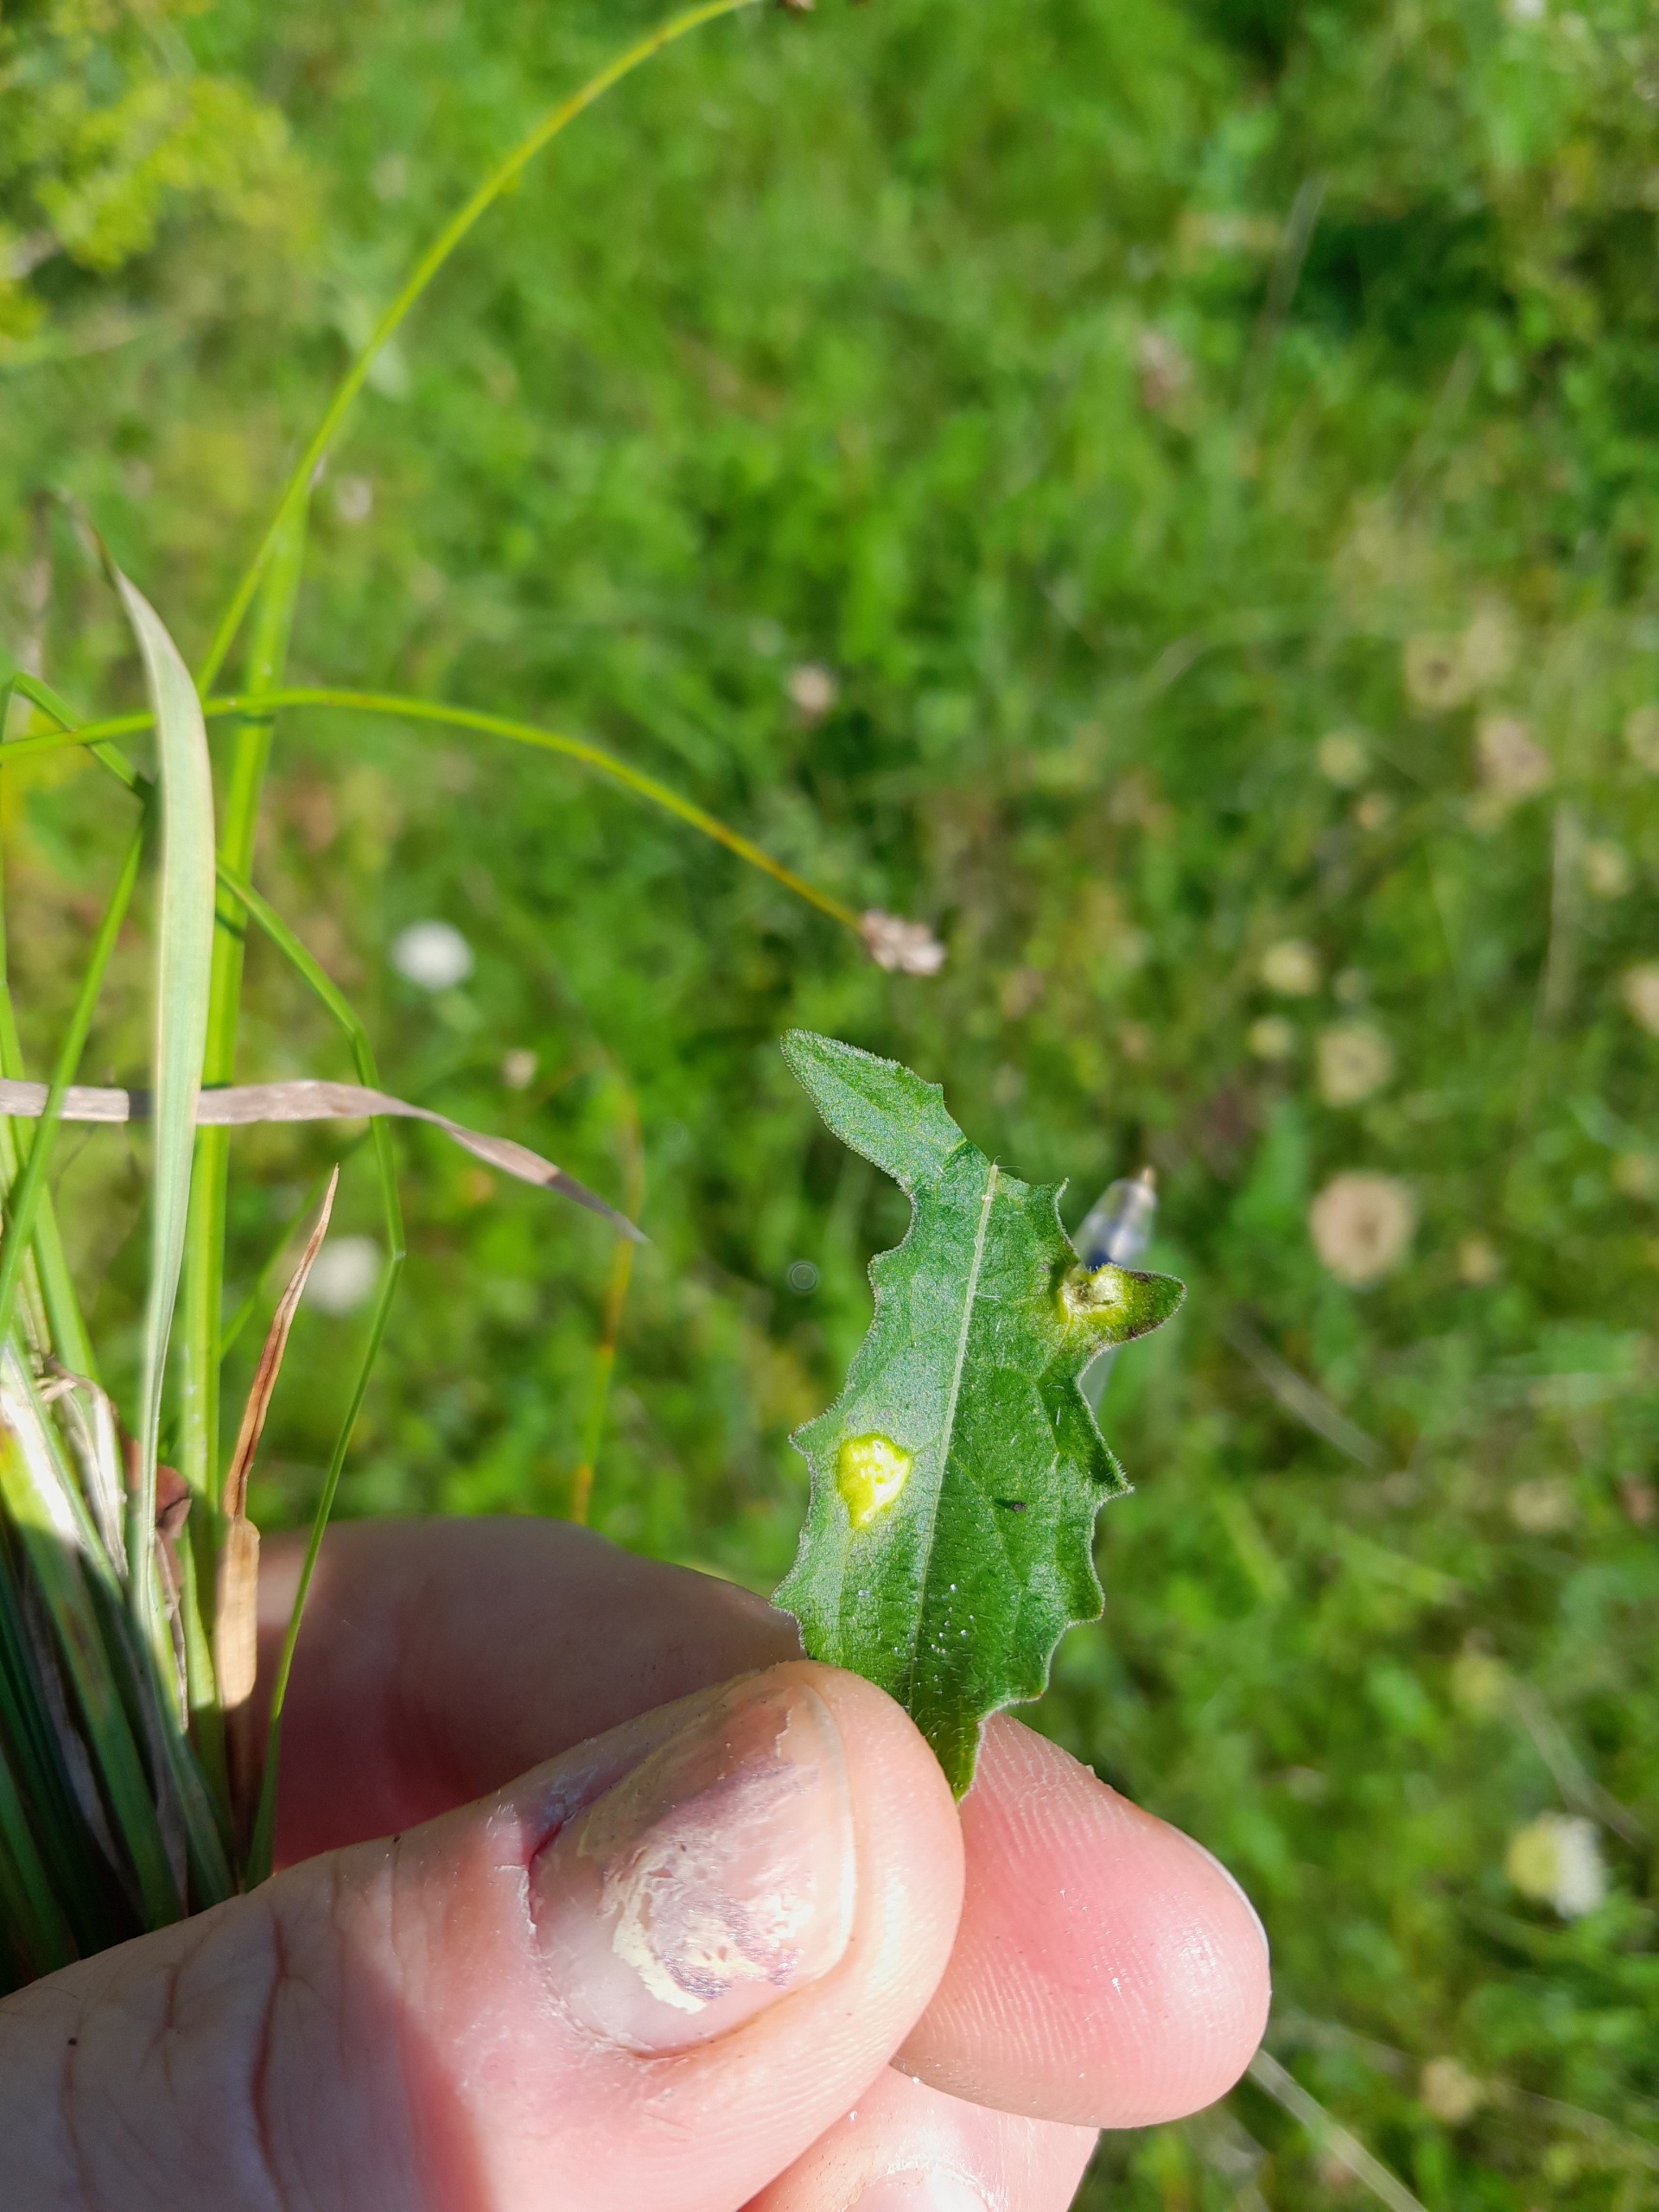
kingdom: Animalia
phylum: Arthropoda
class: Insecta
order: Diptera
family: Cecidomyiidae
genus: Loewiola
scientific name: Loewiola centaureae
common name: Knopurtblæregalmyg
